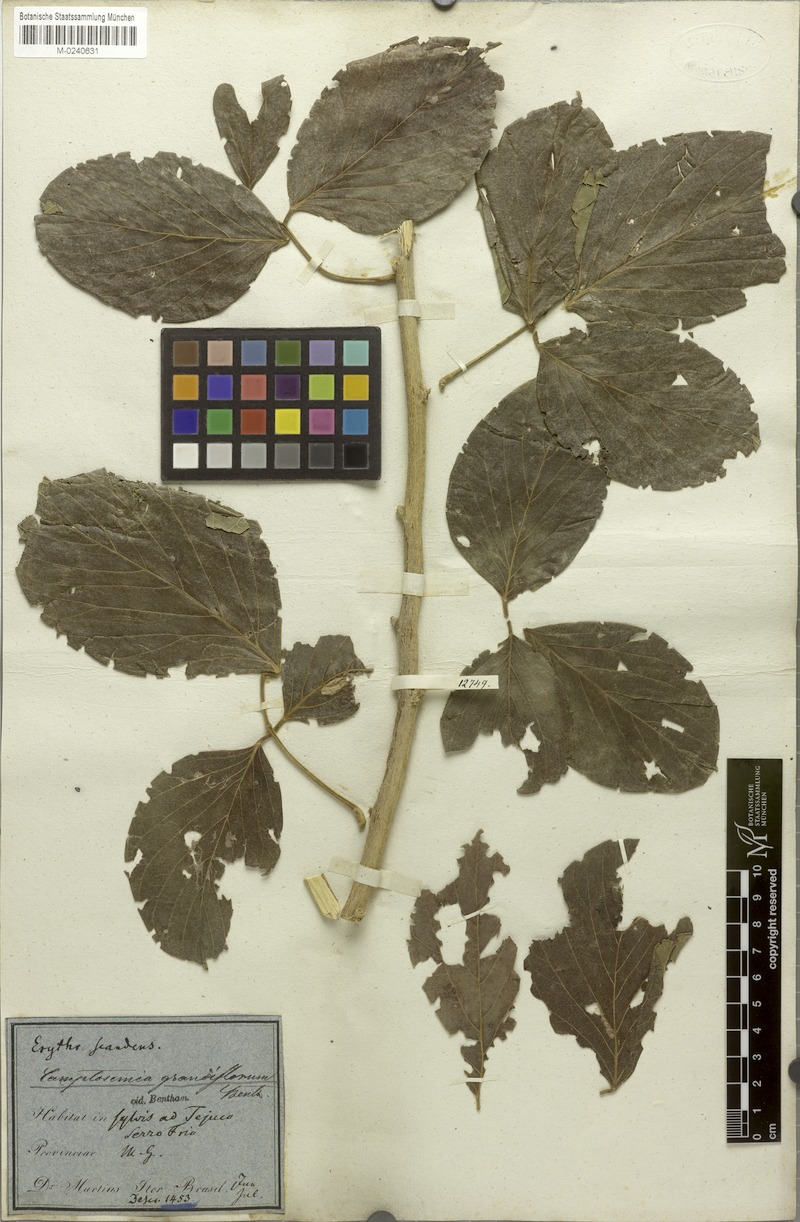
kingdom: Plantae
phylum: Tracheophyta
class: Magnoliopsida
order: Fabales
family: Fabaceae
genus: Camptosema
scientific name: Camptosema spectabile
